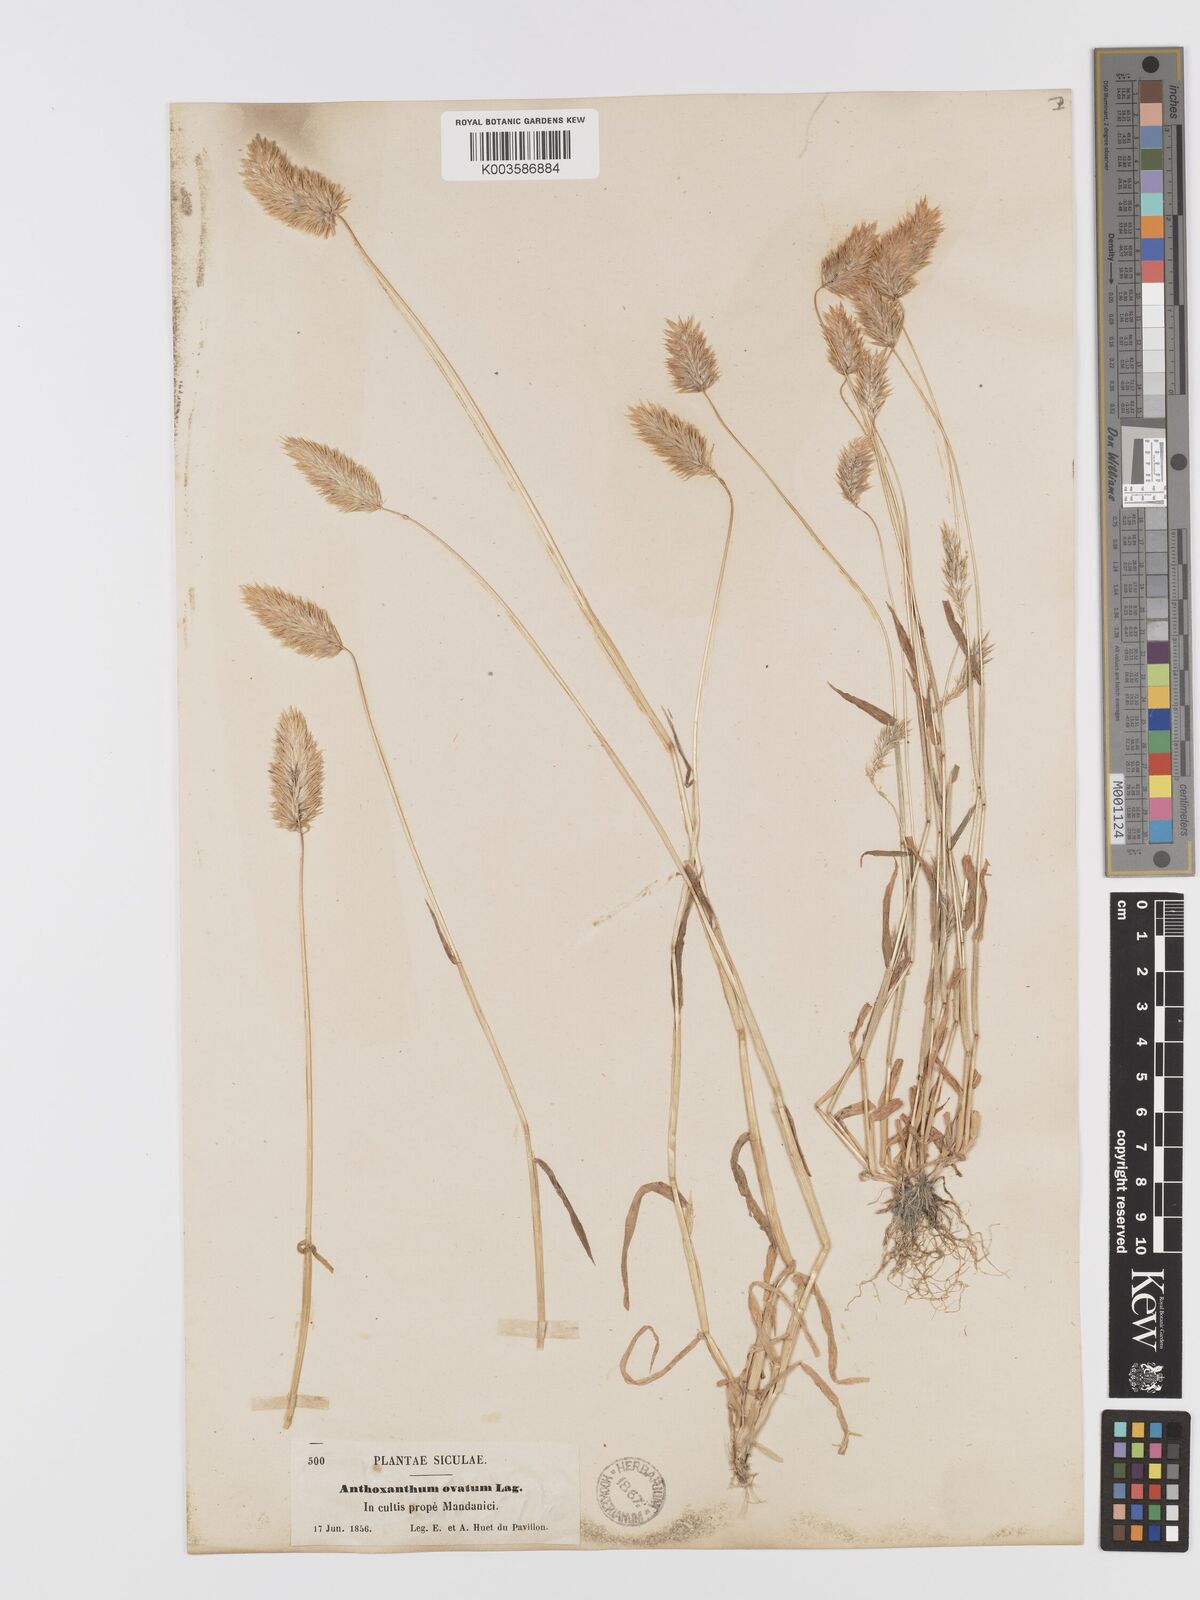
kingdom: Plantae
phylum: Tracheophyta
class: Liliopsida
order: Poales
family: Poaceae
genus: Anthoxanthum
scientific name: Anthoxanthum ovatum
